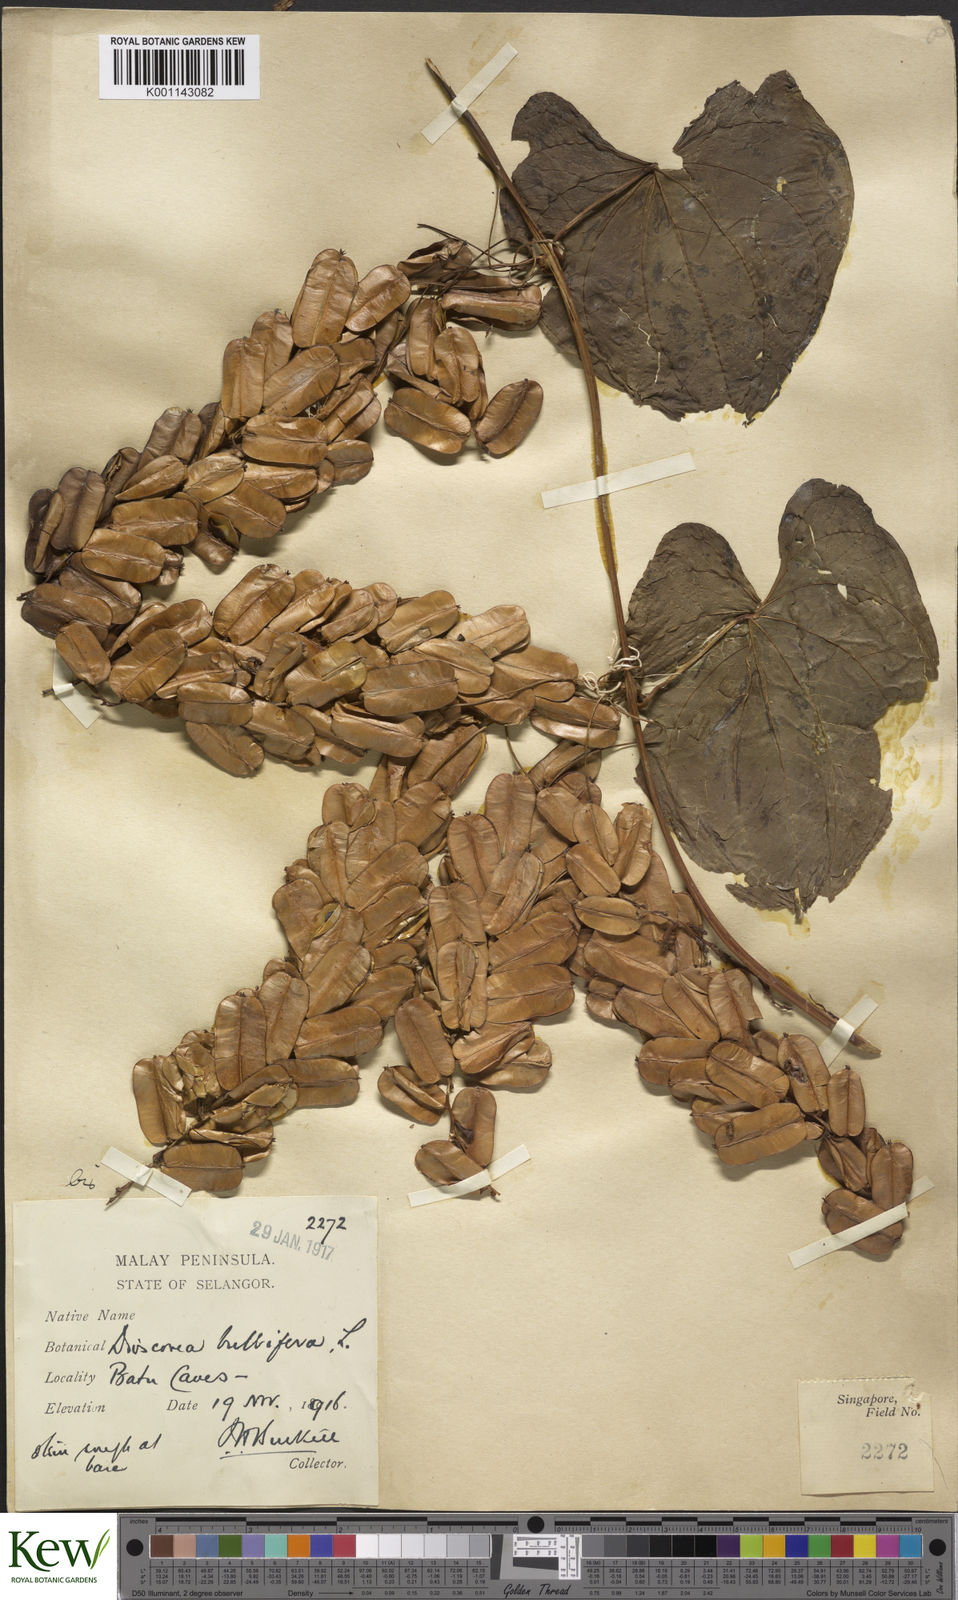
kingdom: Plantae
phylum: Tracheophyta
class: Liliopsida
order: Dioscoreales
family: Dioscoreaceae
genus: Dioscorea
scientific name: Dioscorea bulbifera
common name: Air yam
